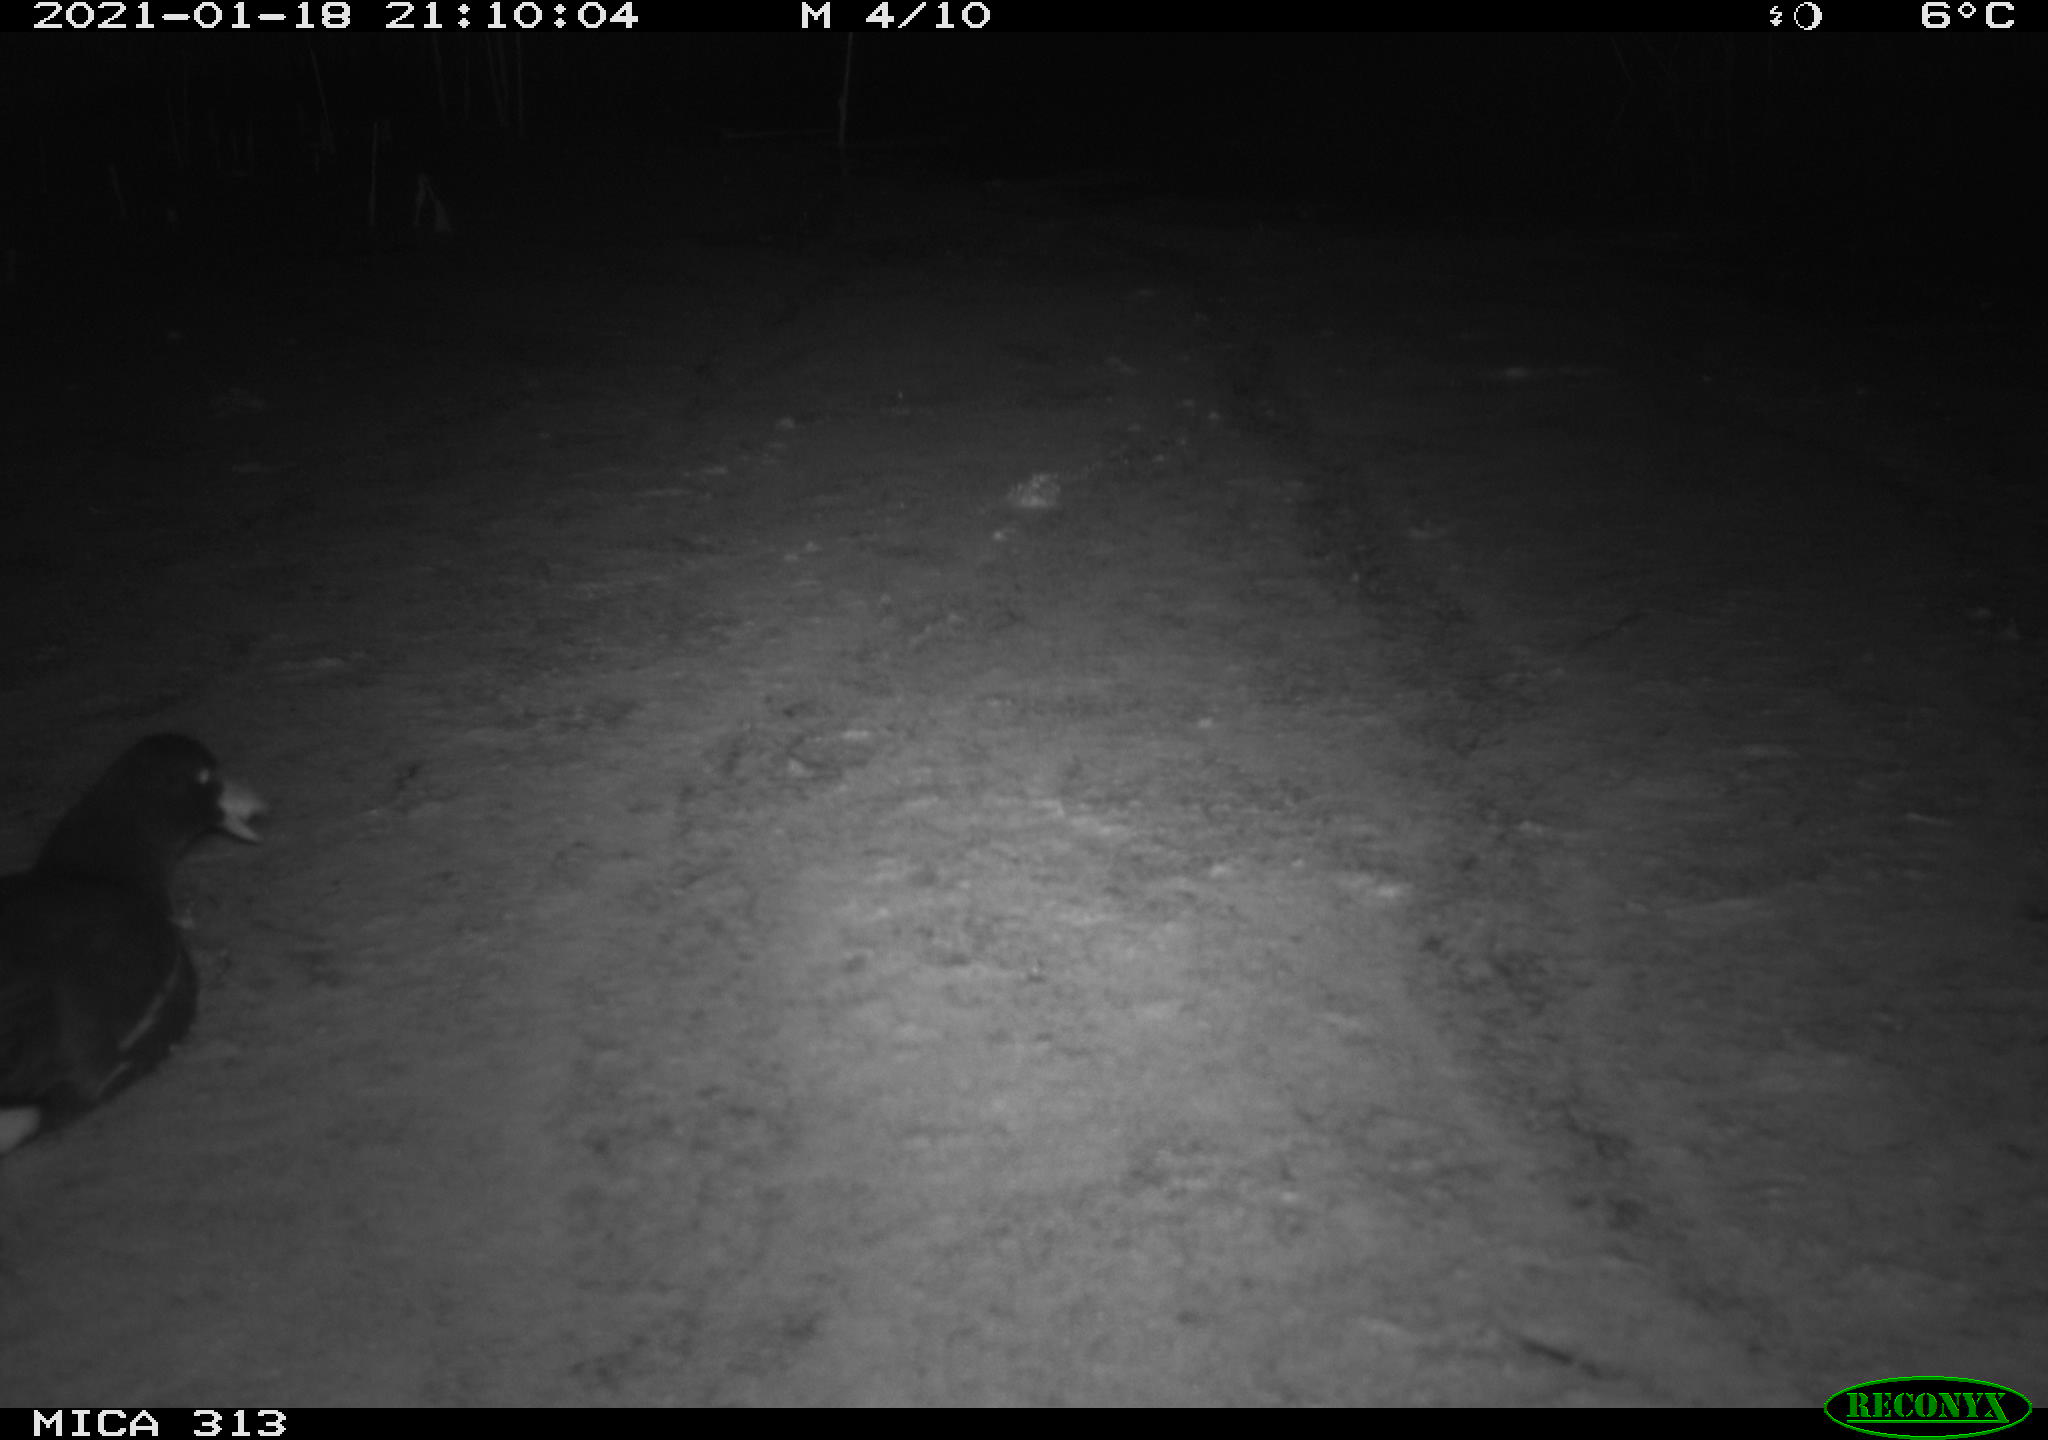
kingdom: Animalia
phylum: Chordata
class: Aves
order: Gruiformes
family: Rallidae
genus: Fulica
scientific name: Fulica atra
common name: Eurasian coot
